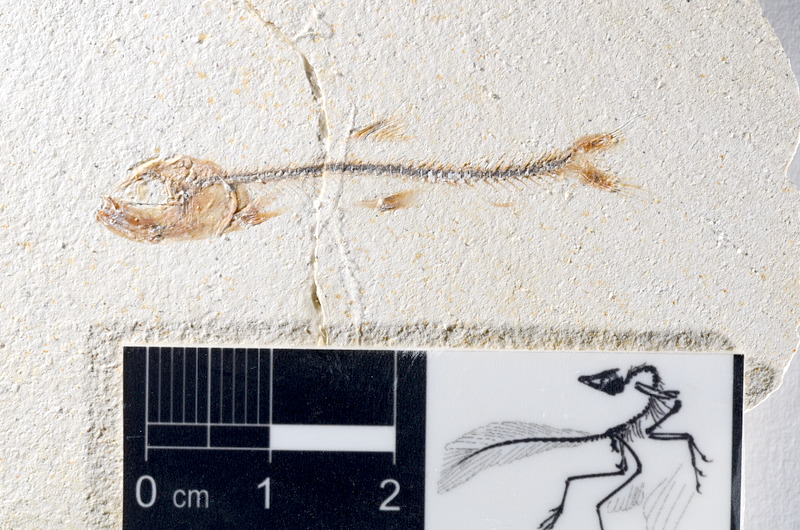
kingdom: Animalia
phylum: Chordata
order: Salmoniformes
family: Orthogonikleithridae
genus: Orthogonikleithrus
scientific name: Orthogonikleithrus hoelli
